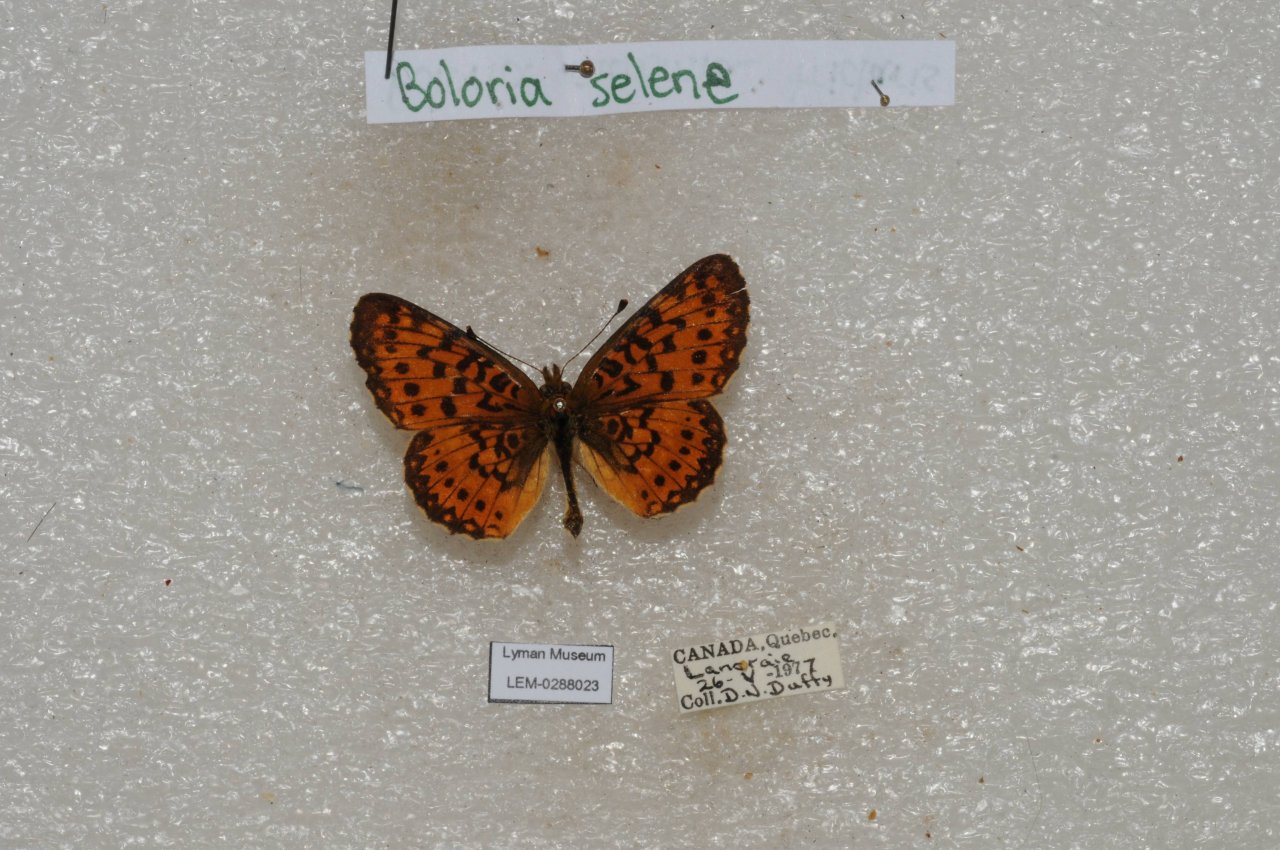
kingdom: Animalia
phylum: Arthropoda
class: Insecta
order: Lepidoptera
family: Nymphalidae
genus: Boloria
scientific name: Boloria selene
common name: Silver-bordered Fritillary
